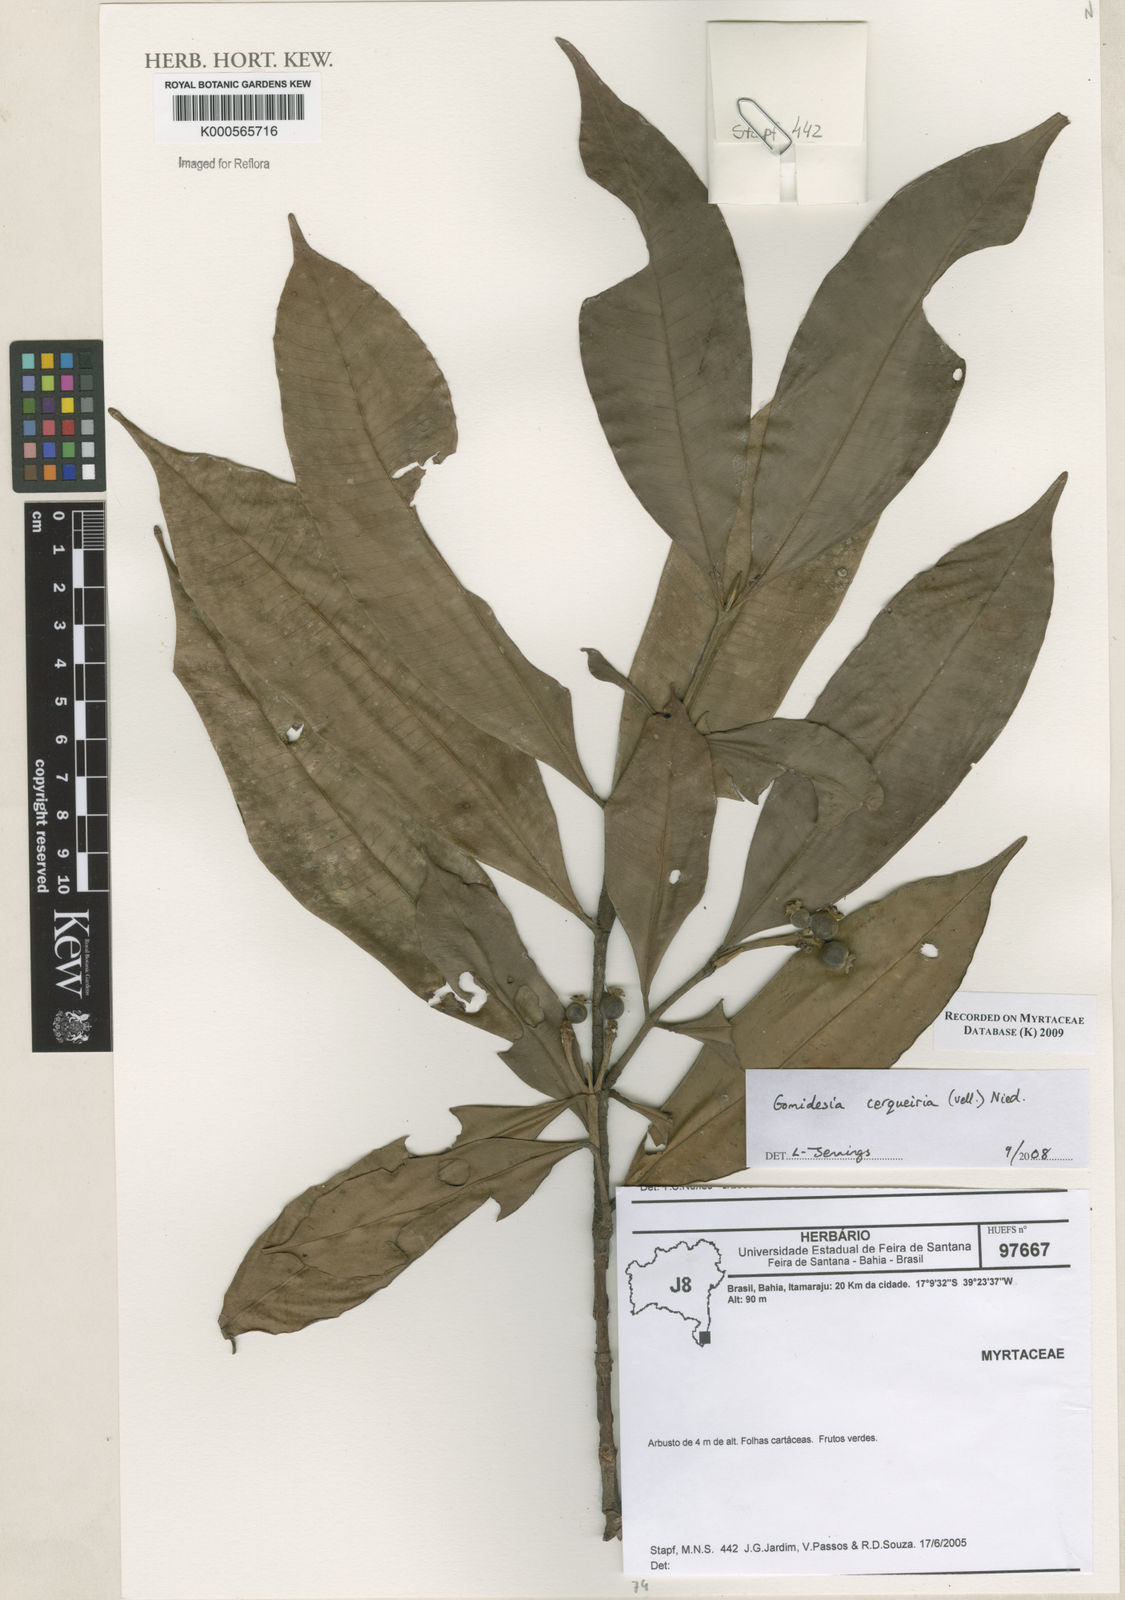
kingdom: Plantae
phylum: Tracheophyta
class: Magnoliopsida
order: Myrtales
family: Myrtaceae
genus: Myrcia
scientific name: Myrcia cerqueiria
